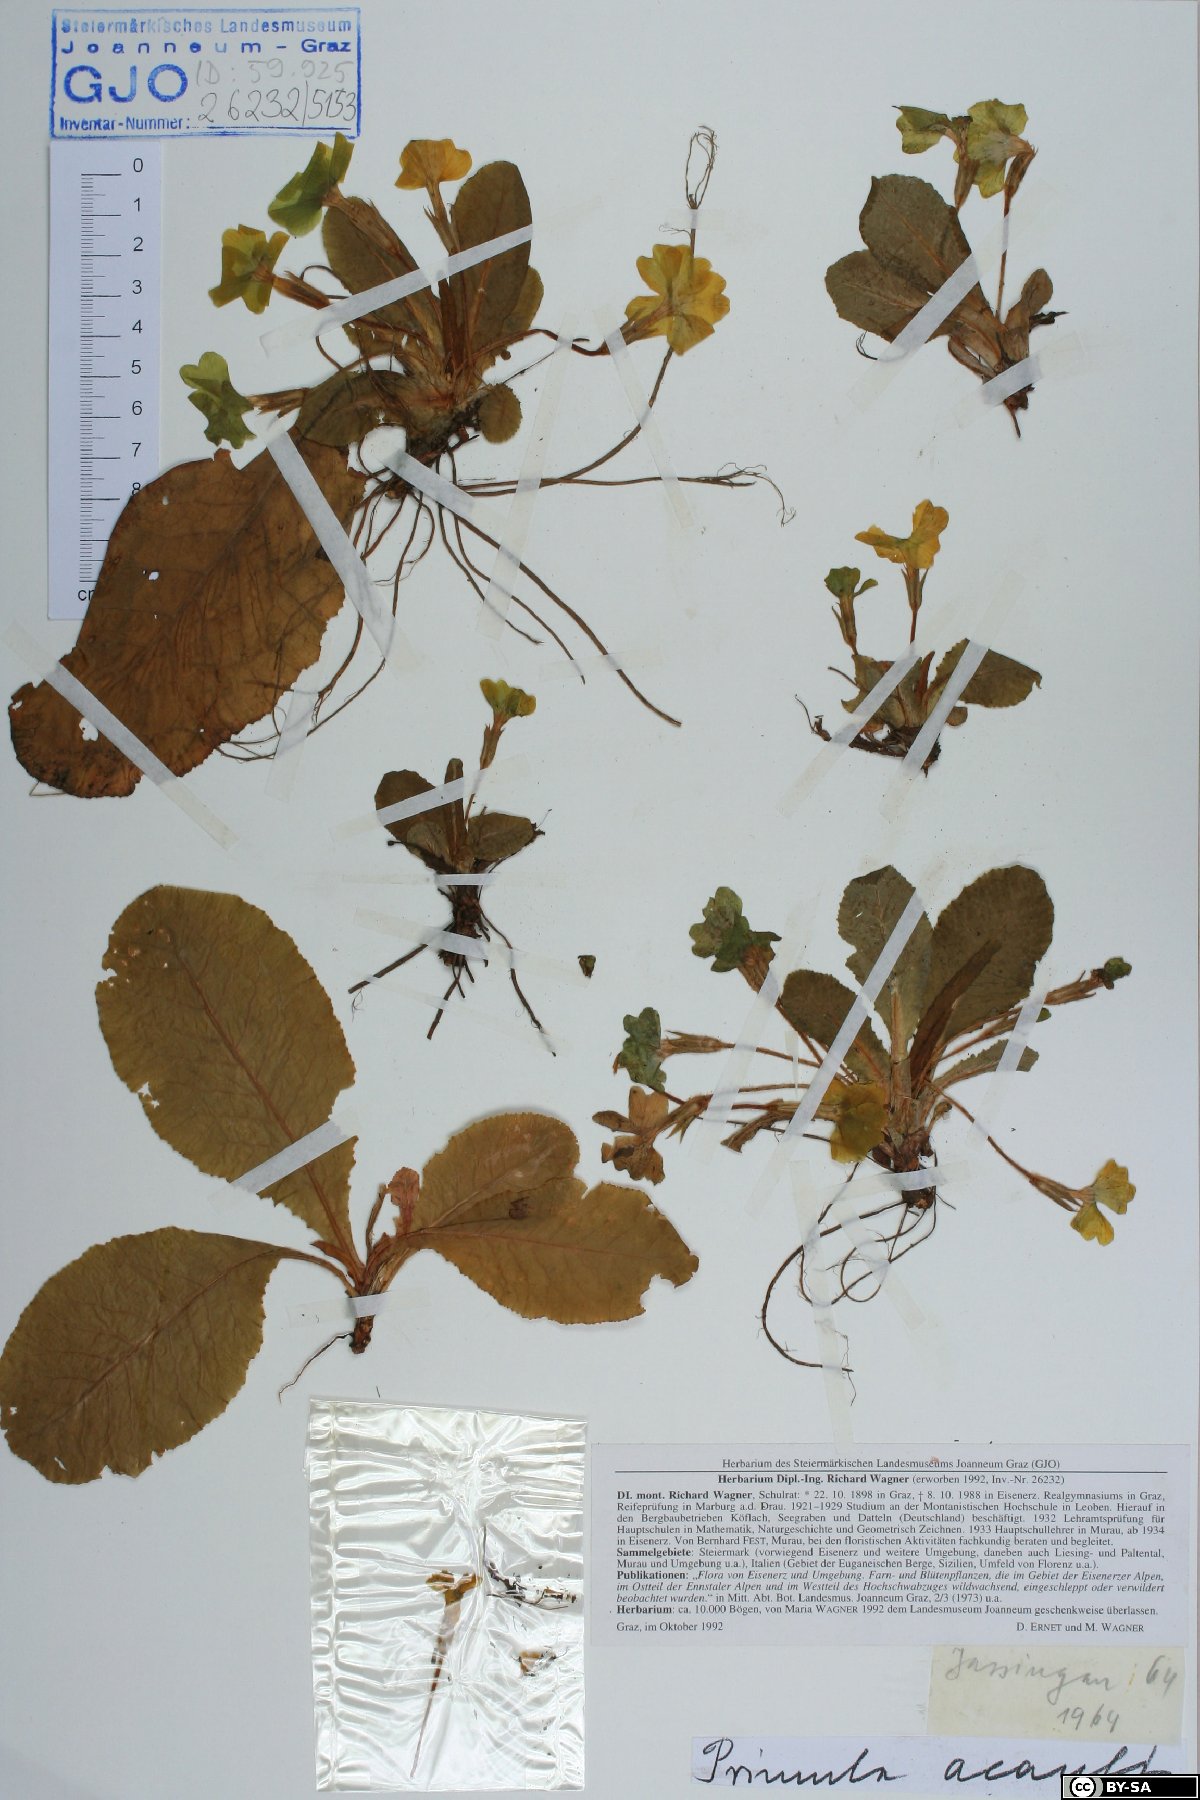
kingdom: Plantae
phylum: Tracheophyta
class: Magnoliopsida
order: Ericales
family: Primulaceae
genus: Primula
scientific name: Primula vulgaris
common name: Primrose
